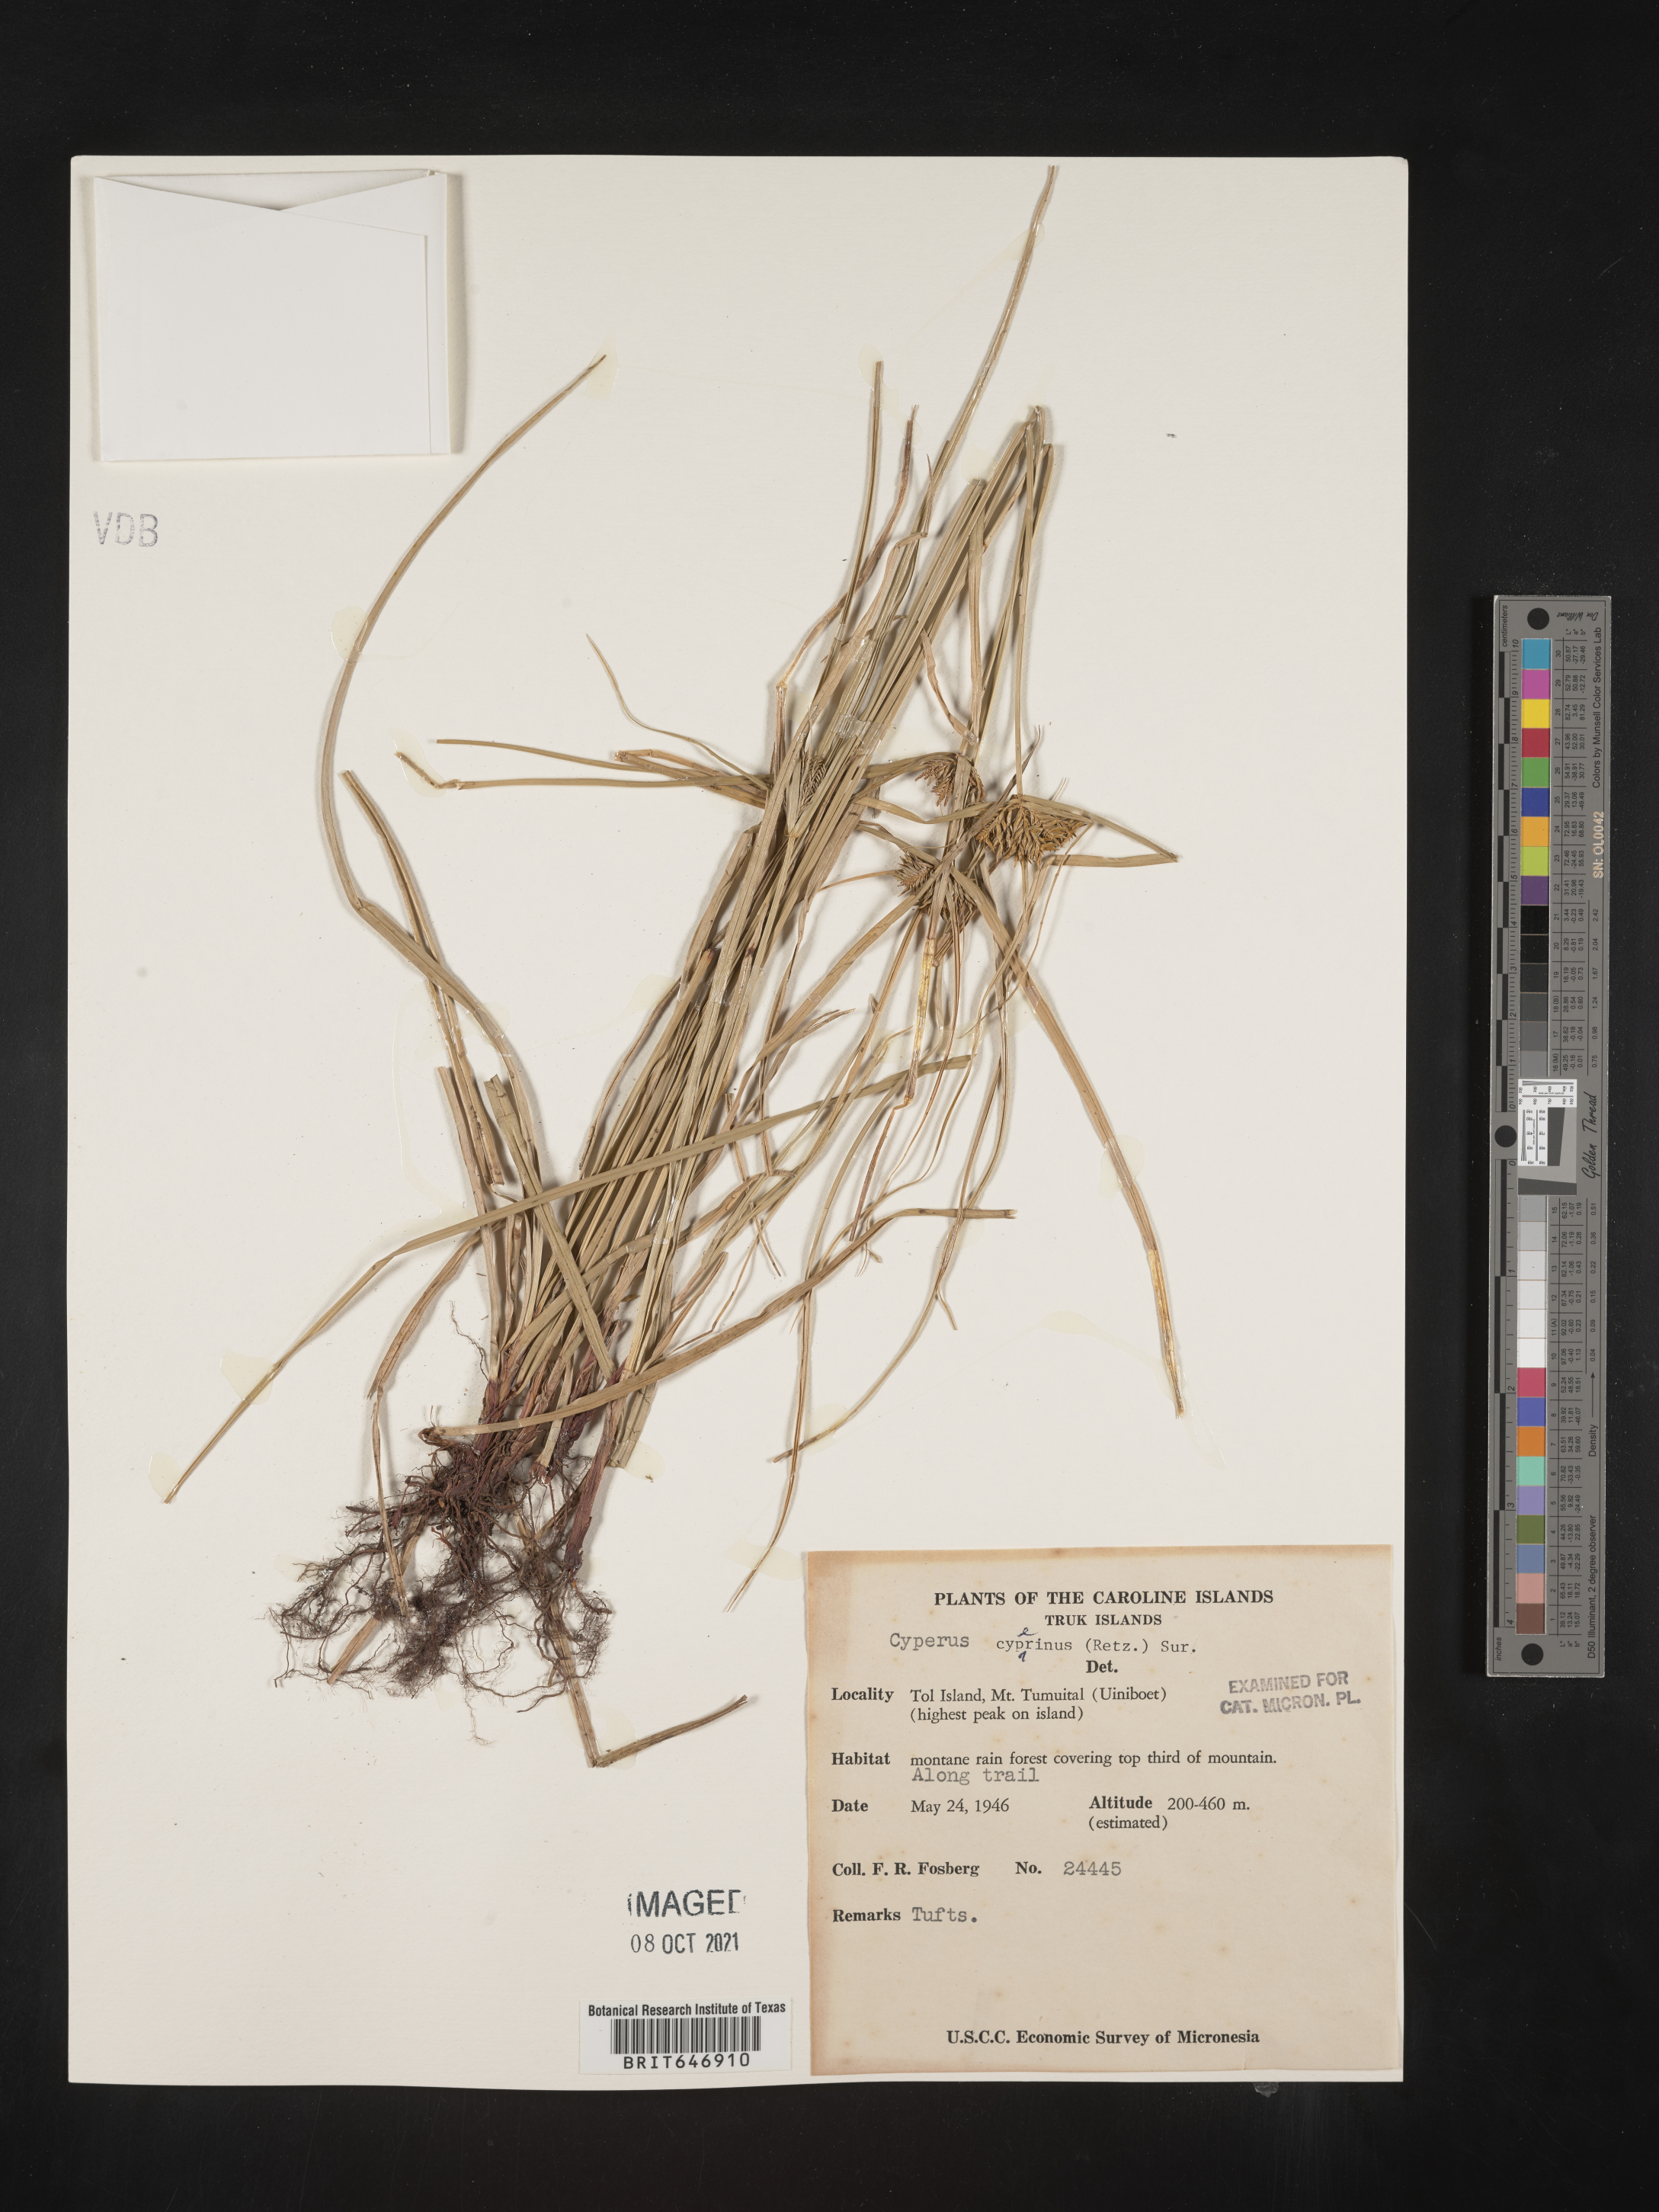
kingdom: Plantae
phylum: Tracheophyta
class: Liliopsida
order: Poales
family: Cyperaceae
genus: Cyperus
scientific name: Cyperus cyperinus
